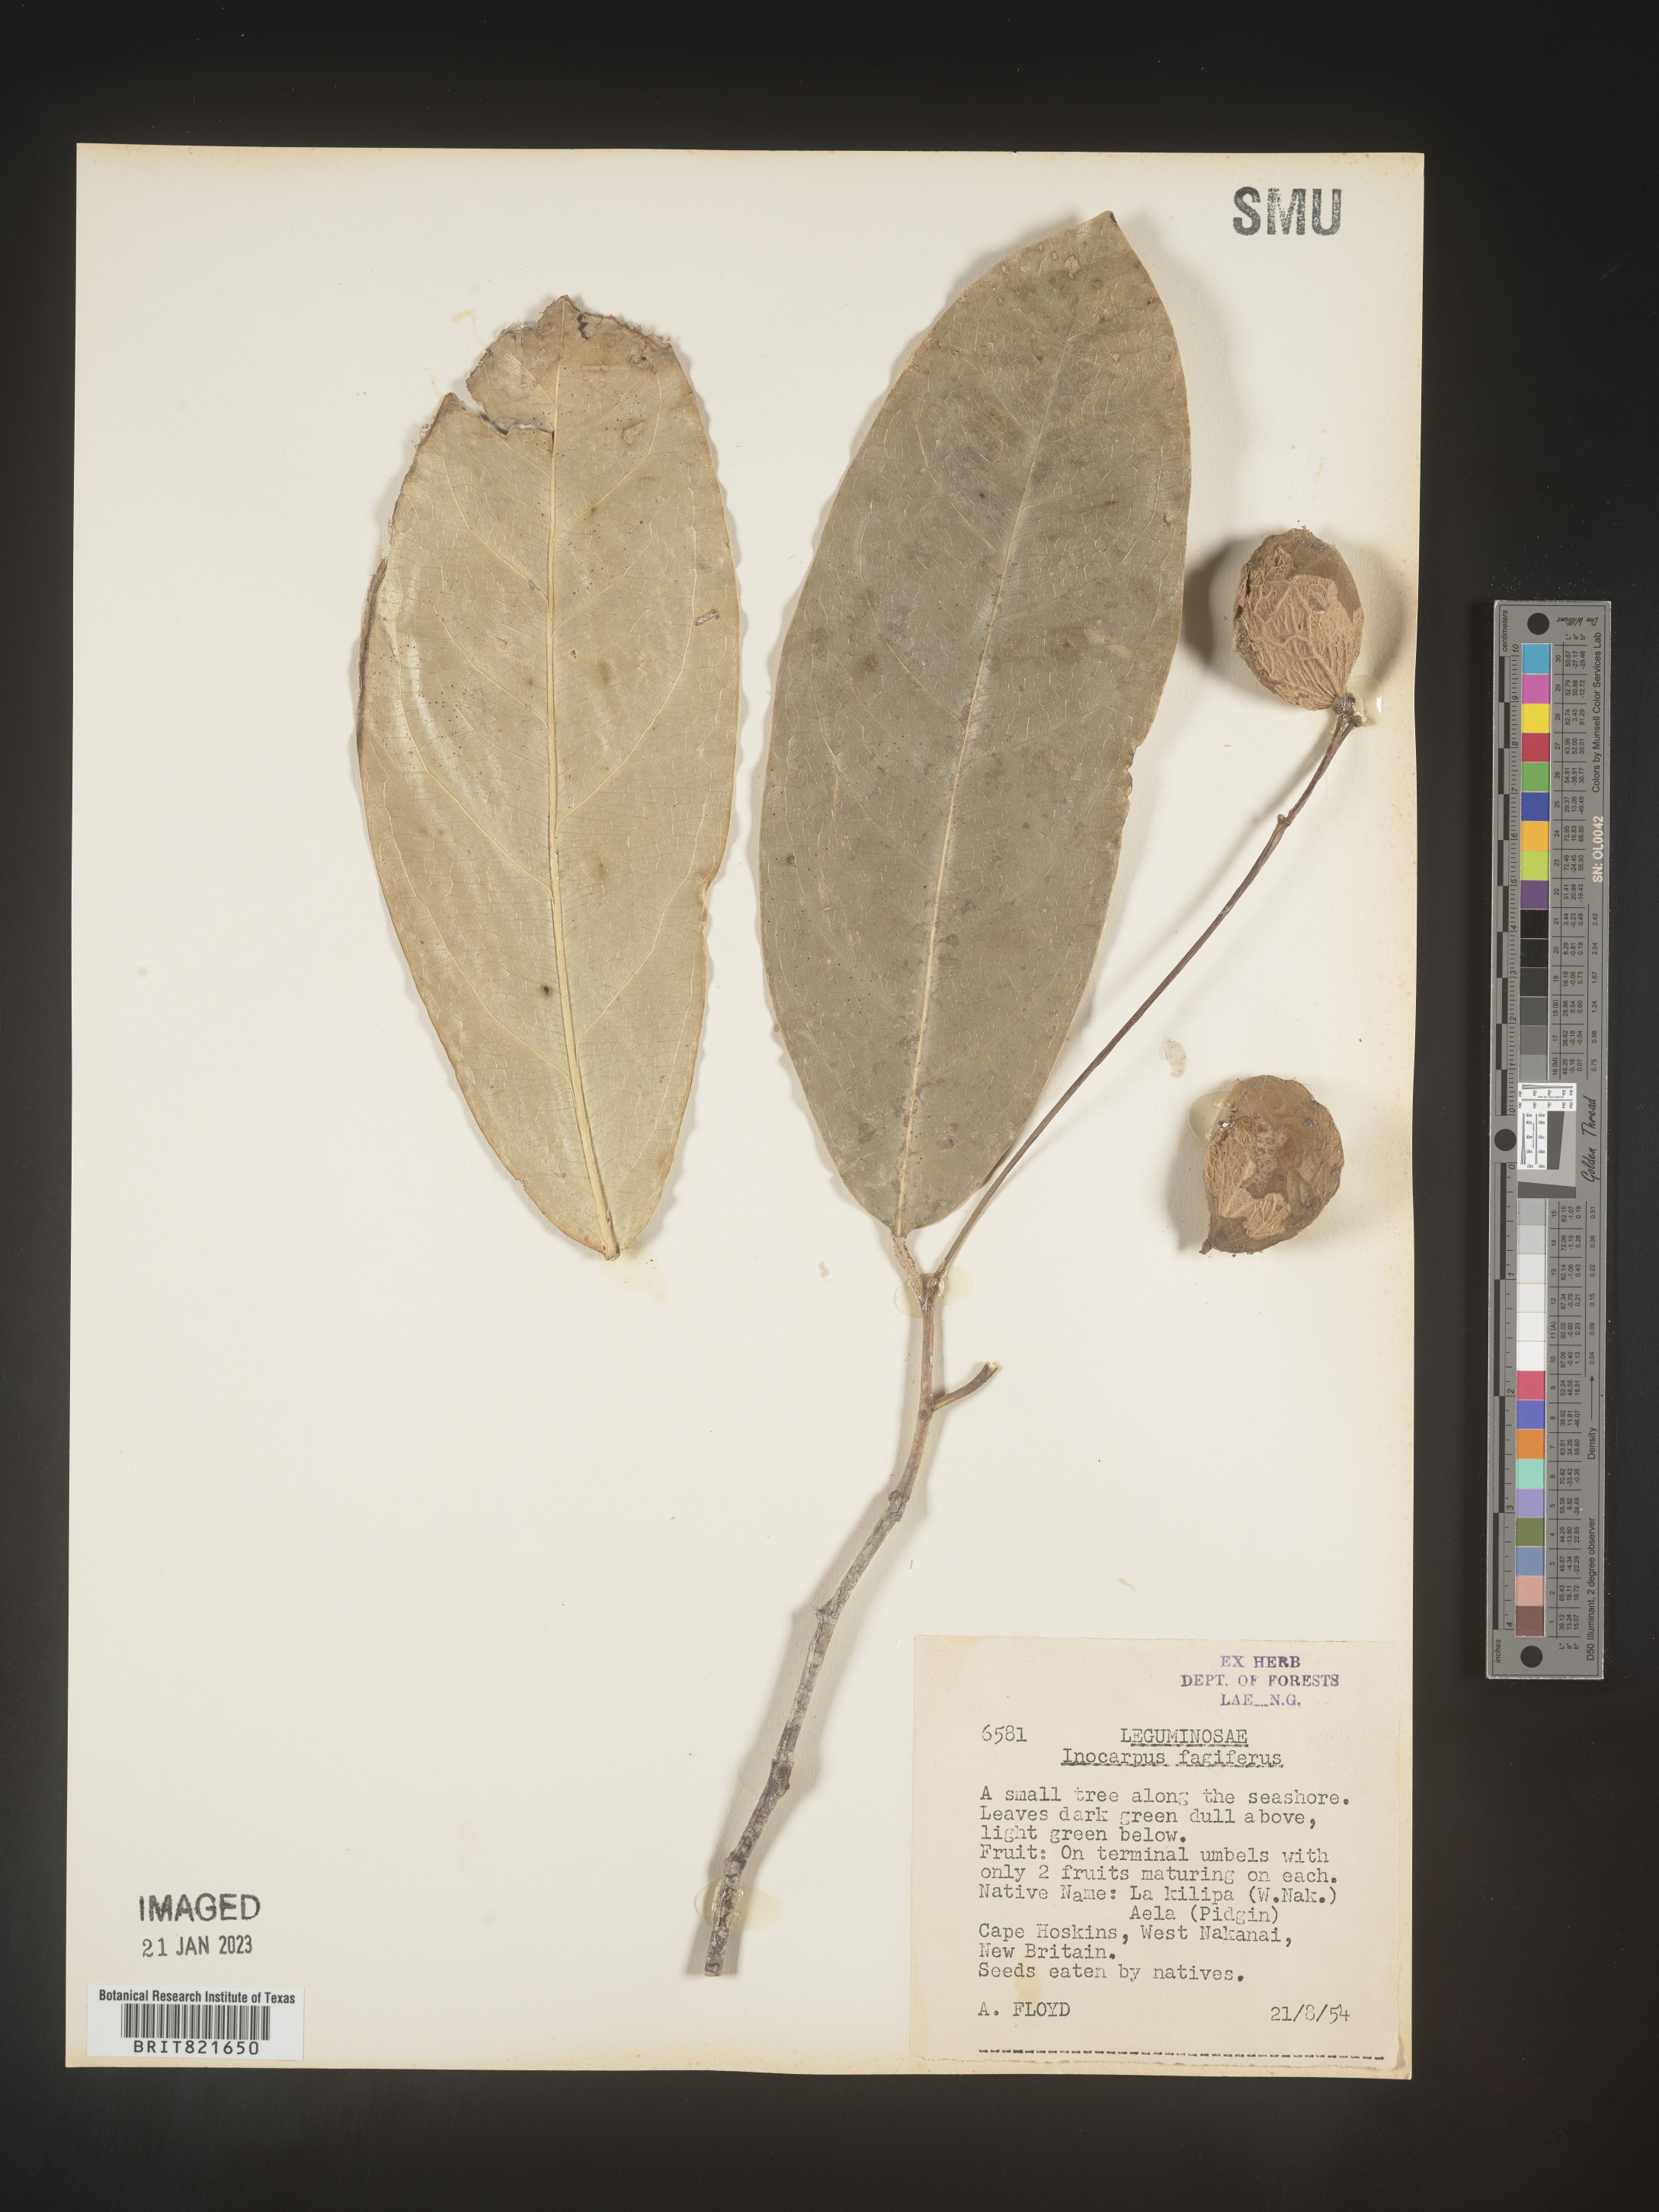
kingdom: Plantae
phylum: Tracheophyta
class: Magnoliopsida
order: Fabales
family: Fabaceae
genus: Inocarpus
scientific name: Inocarpus
